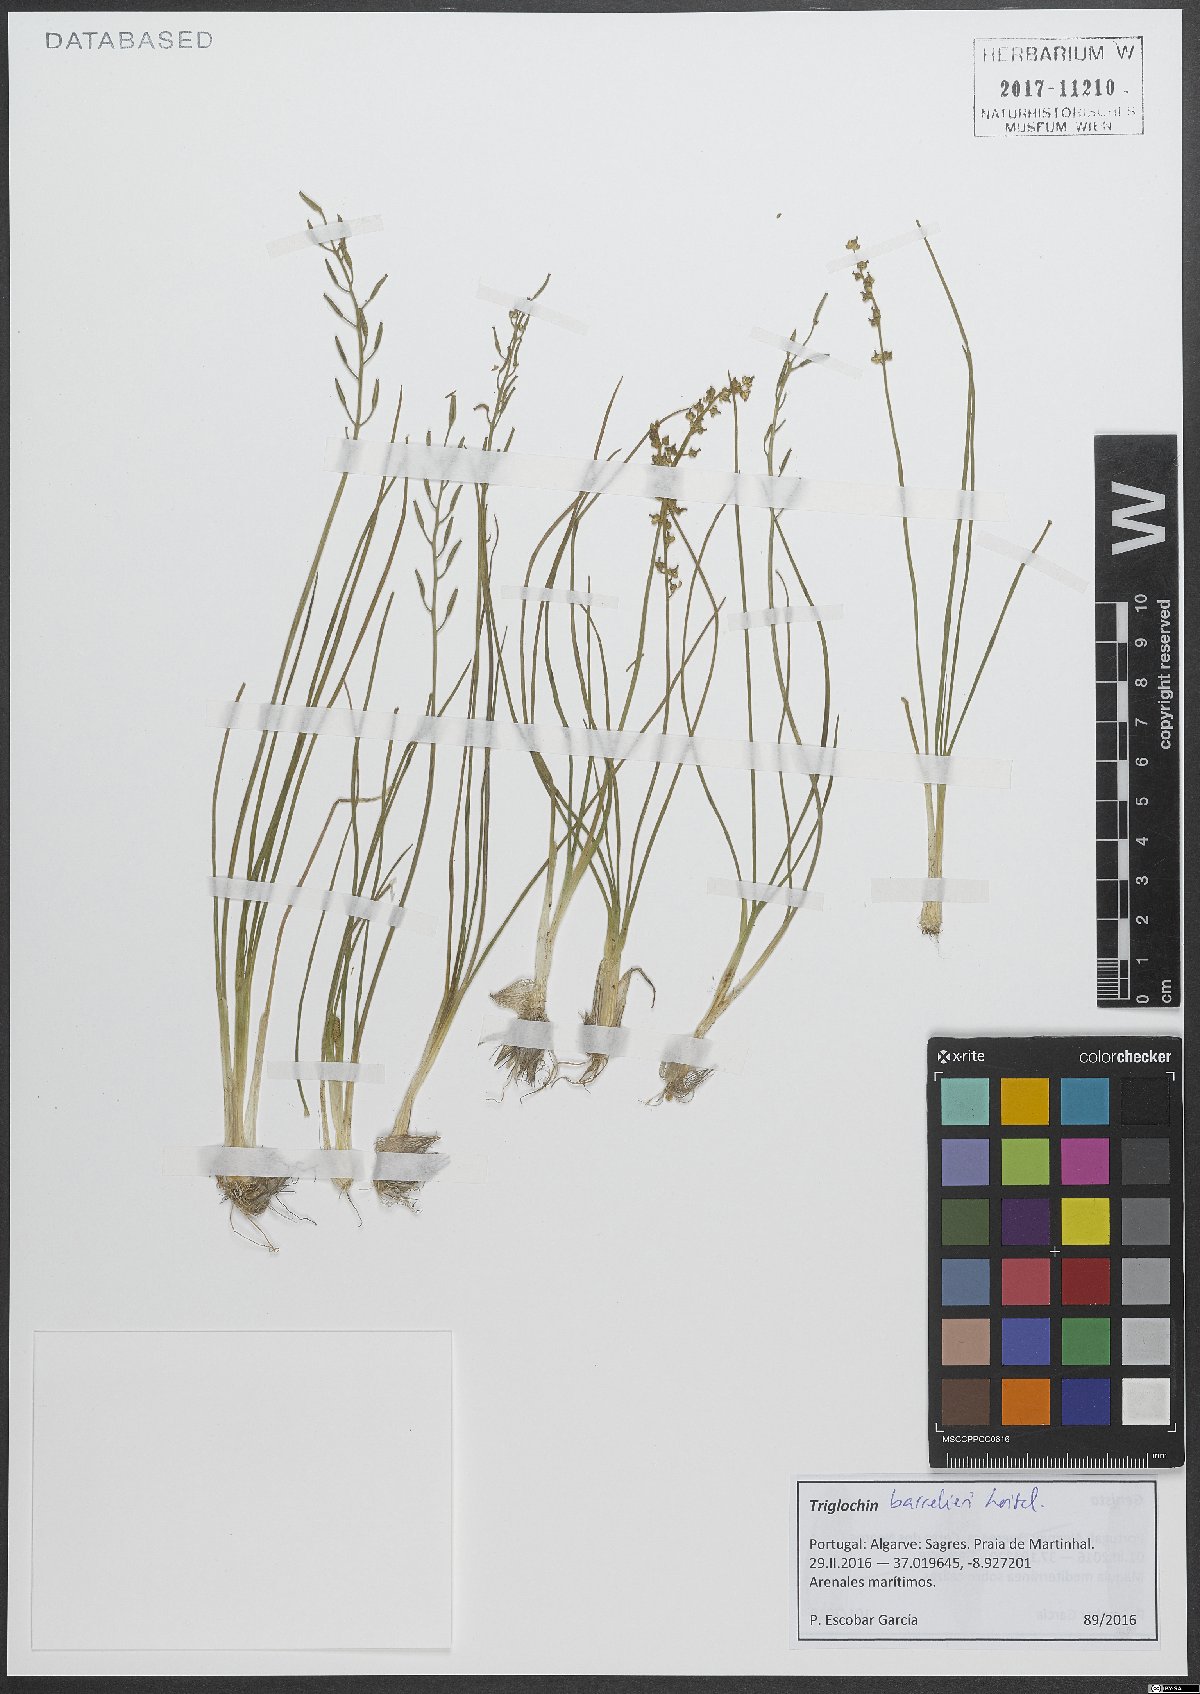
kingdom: Plantae
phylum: Tracheophyta
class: Liliopsida
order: Alismatales
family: Juncaginaceae
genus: Triglochin
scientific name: Triglochin barrelieri
